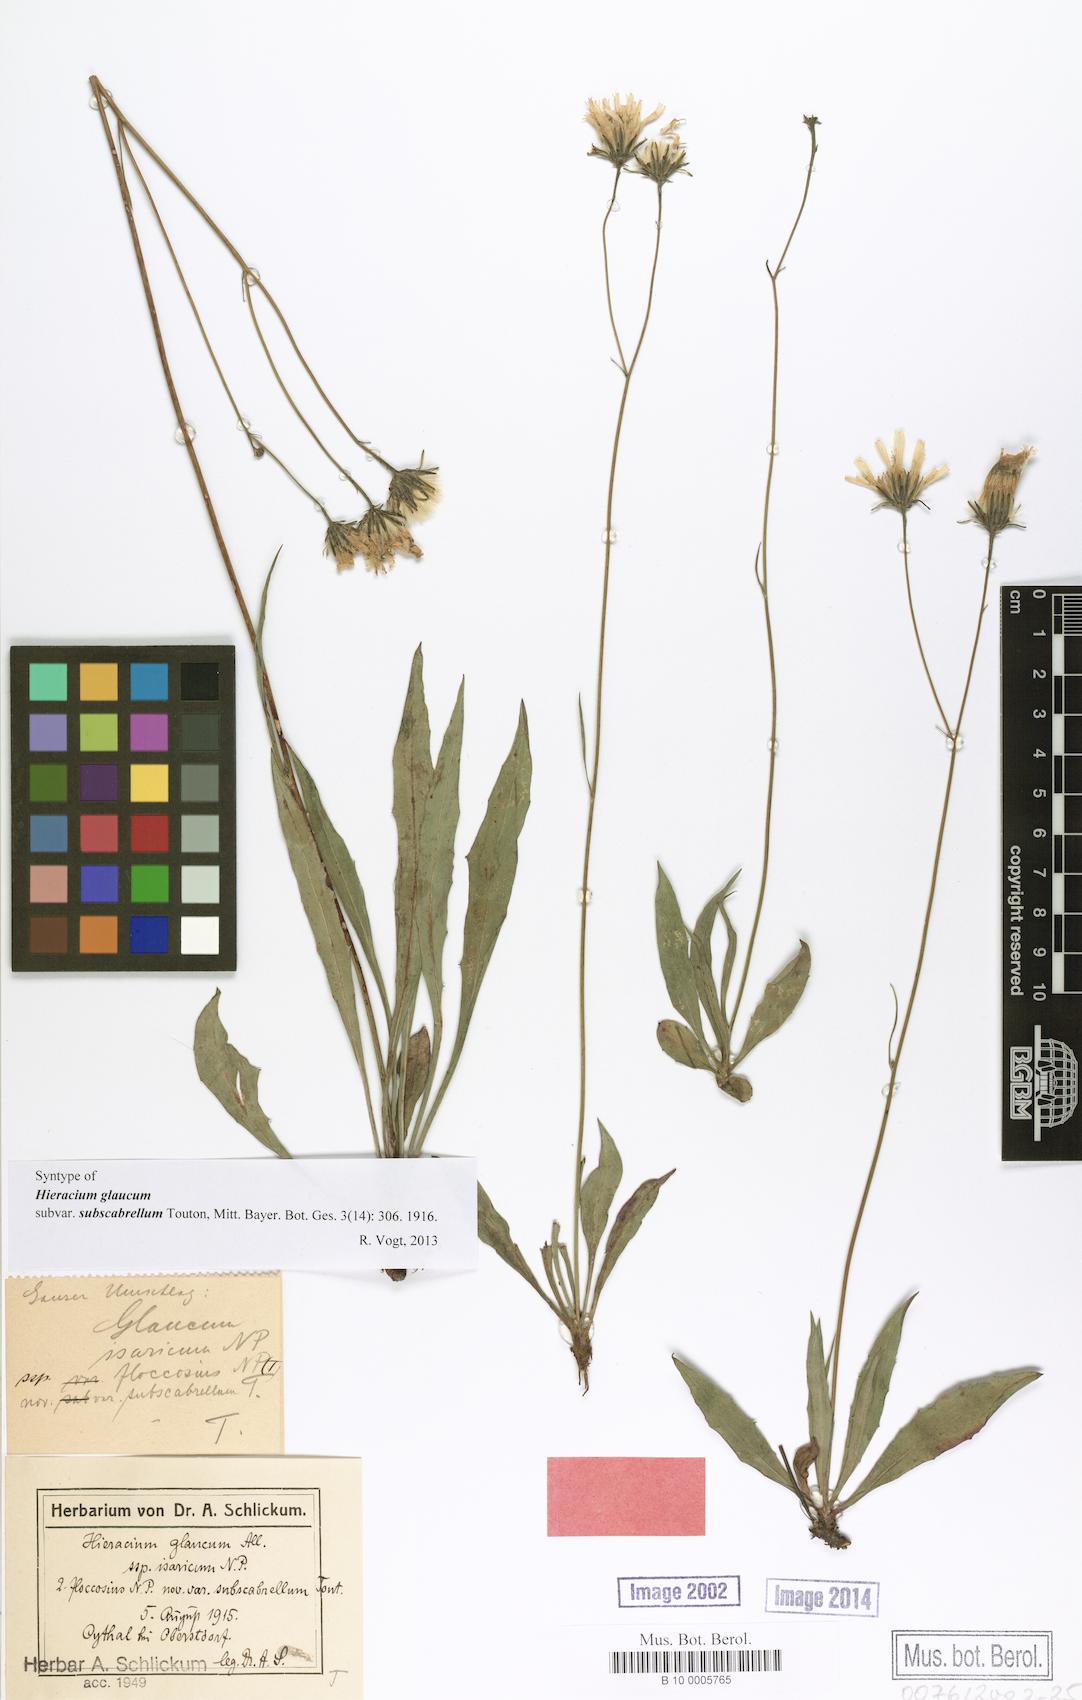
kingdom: Plantae
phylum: Tracheophyta
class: Magnoliopsida
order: Asterales
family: Asteraceae
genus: Hieracium
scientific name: Hieracium glaucum
